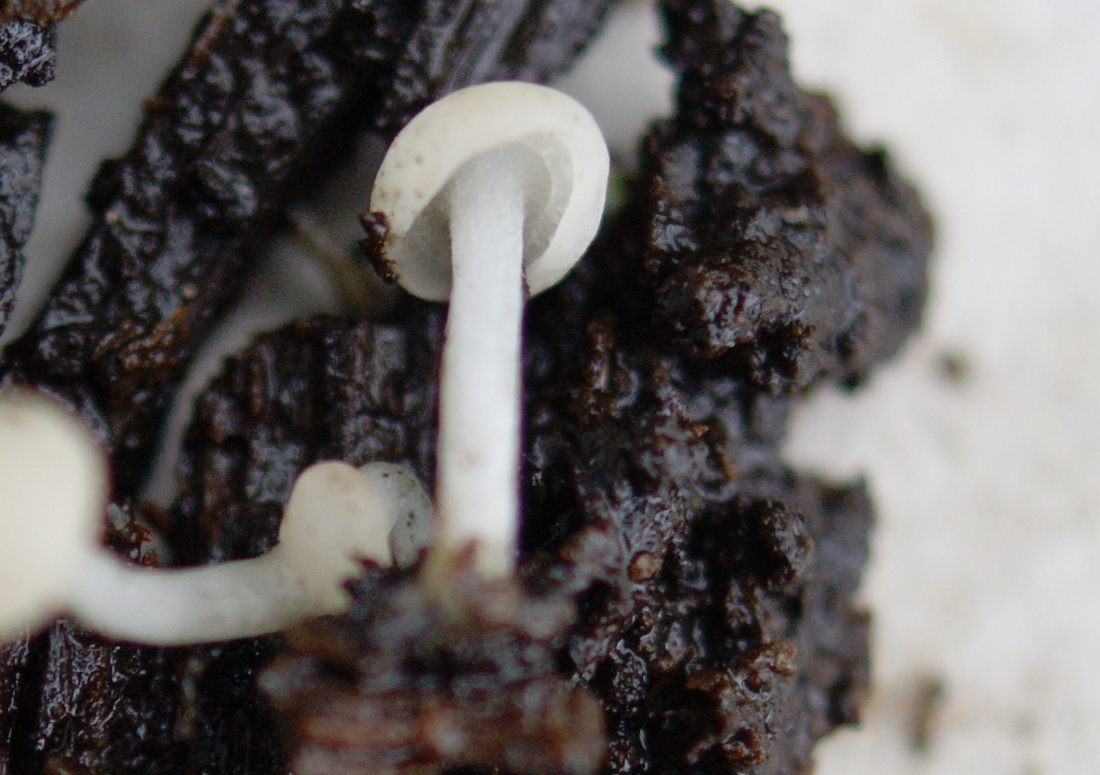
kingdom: Fungi
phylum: Ascomycota
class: Leotiomycetes
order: Helotiales
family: Tricladiaceae
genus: Cudoniella
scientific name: Cudoniella acicularis
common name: ege-dyndskive
